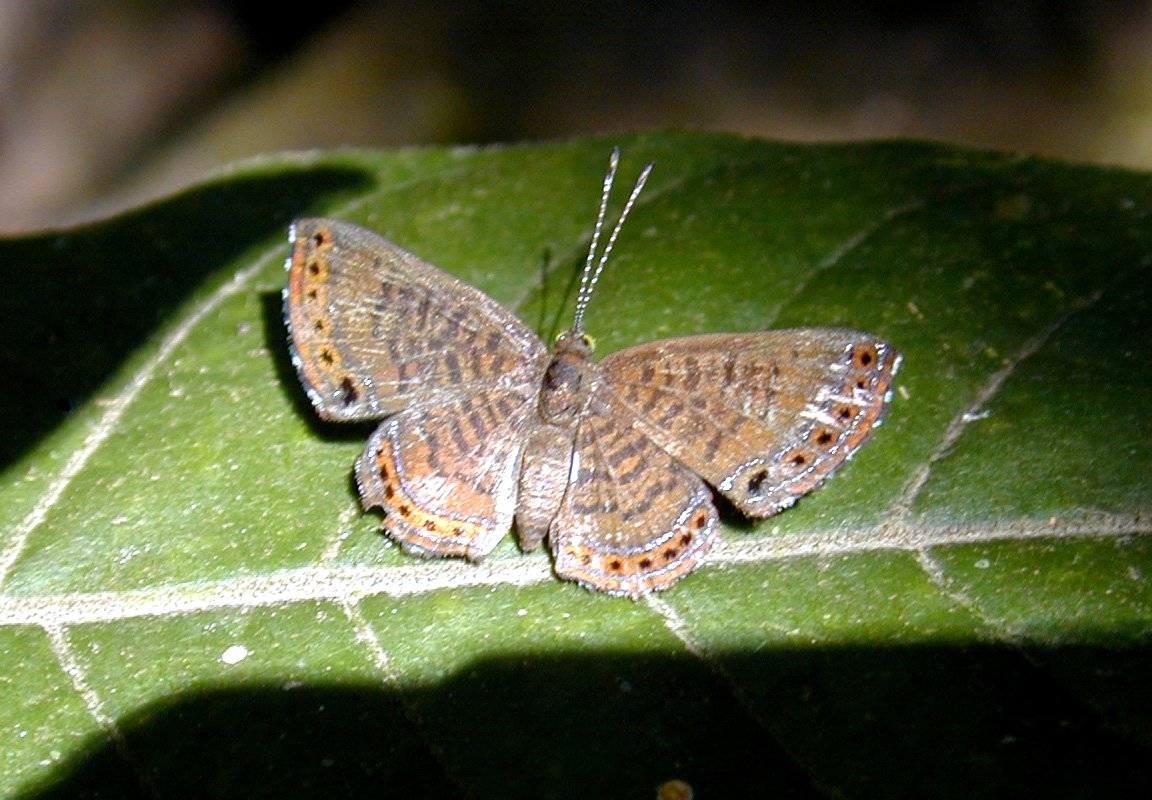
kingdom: Animalia
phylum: Arthropoda
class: Insecta
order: Lepidoptera
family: Riodinidae
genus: Detritivora
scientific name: Detritivora
